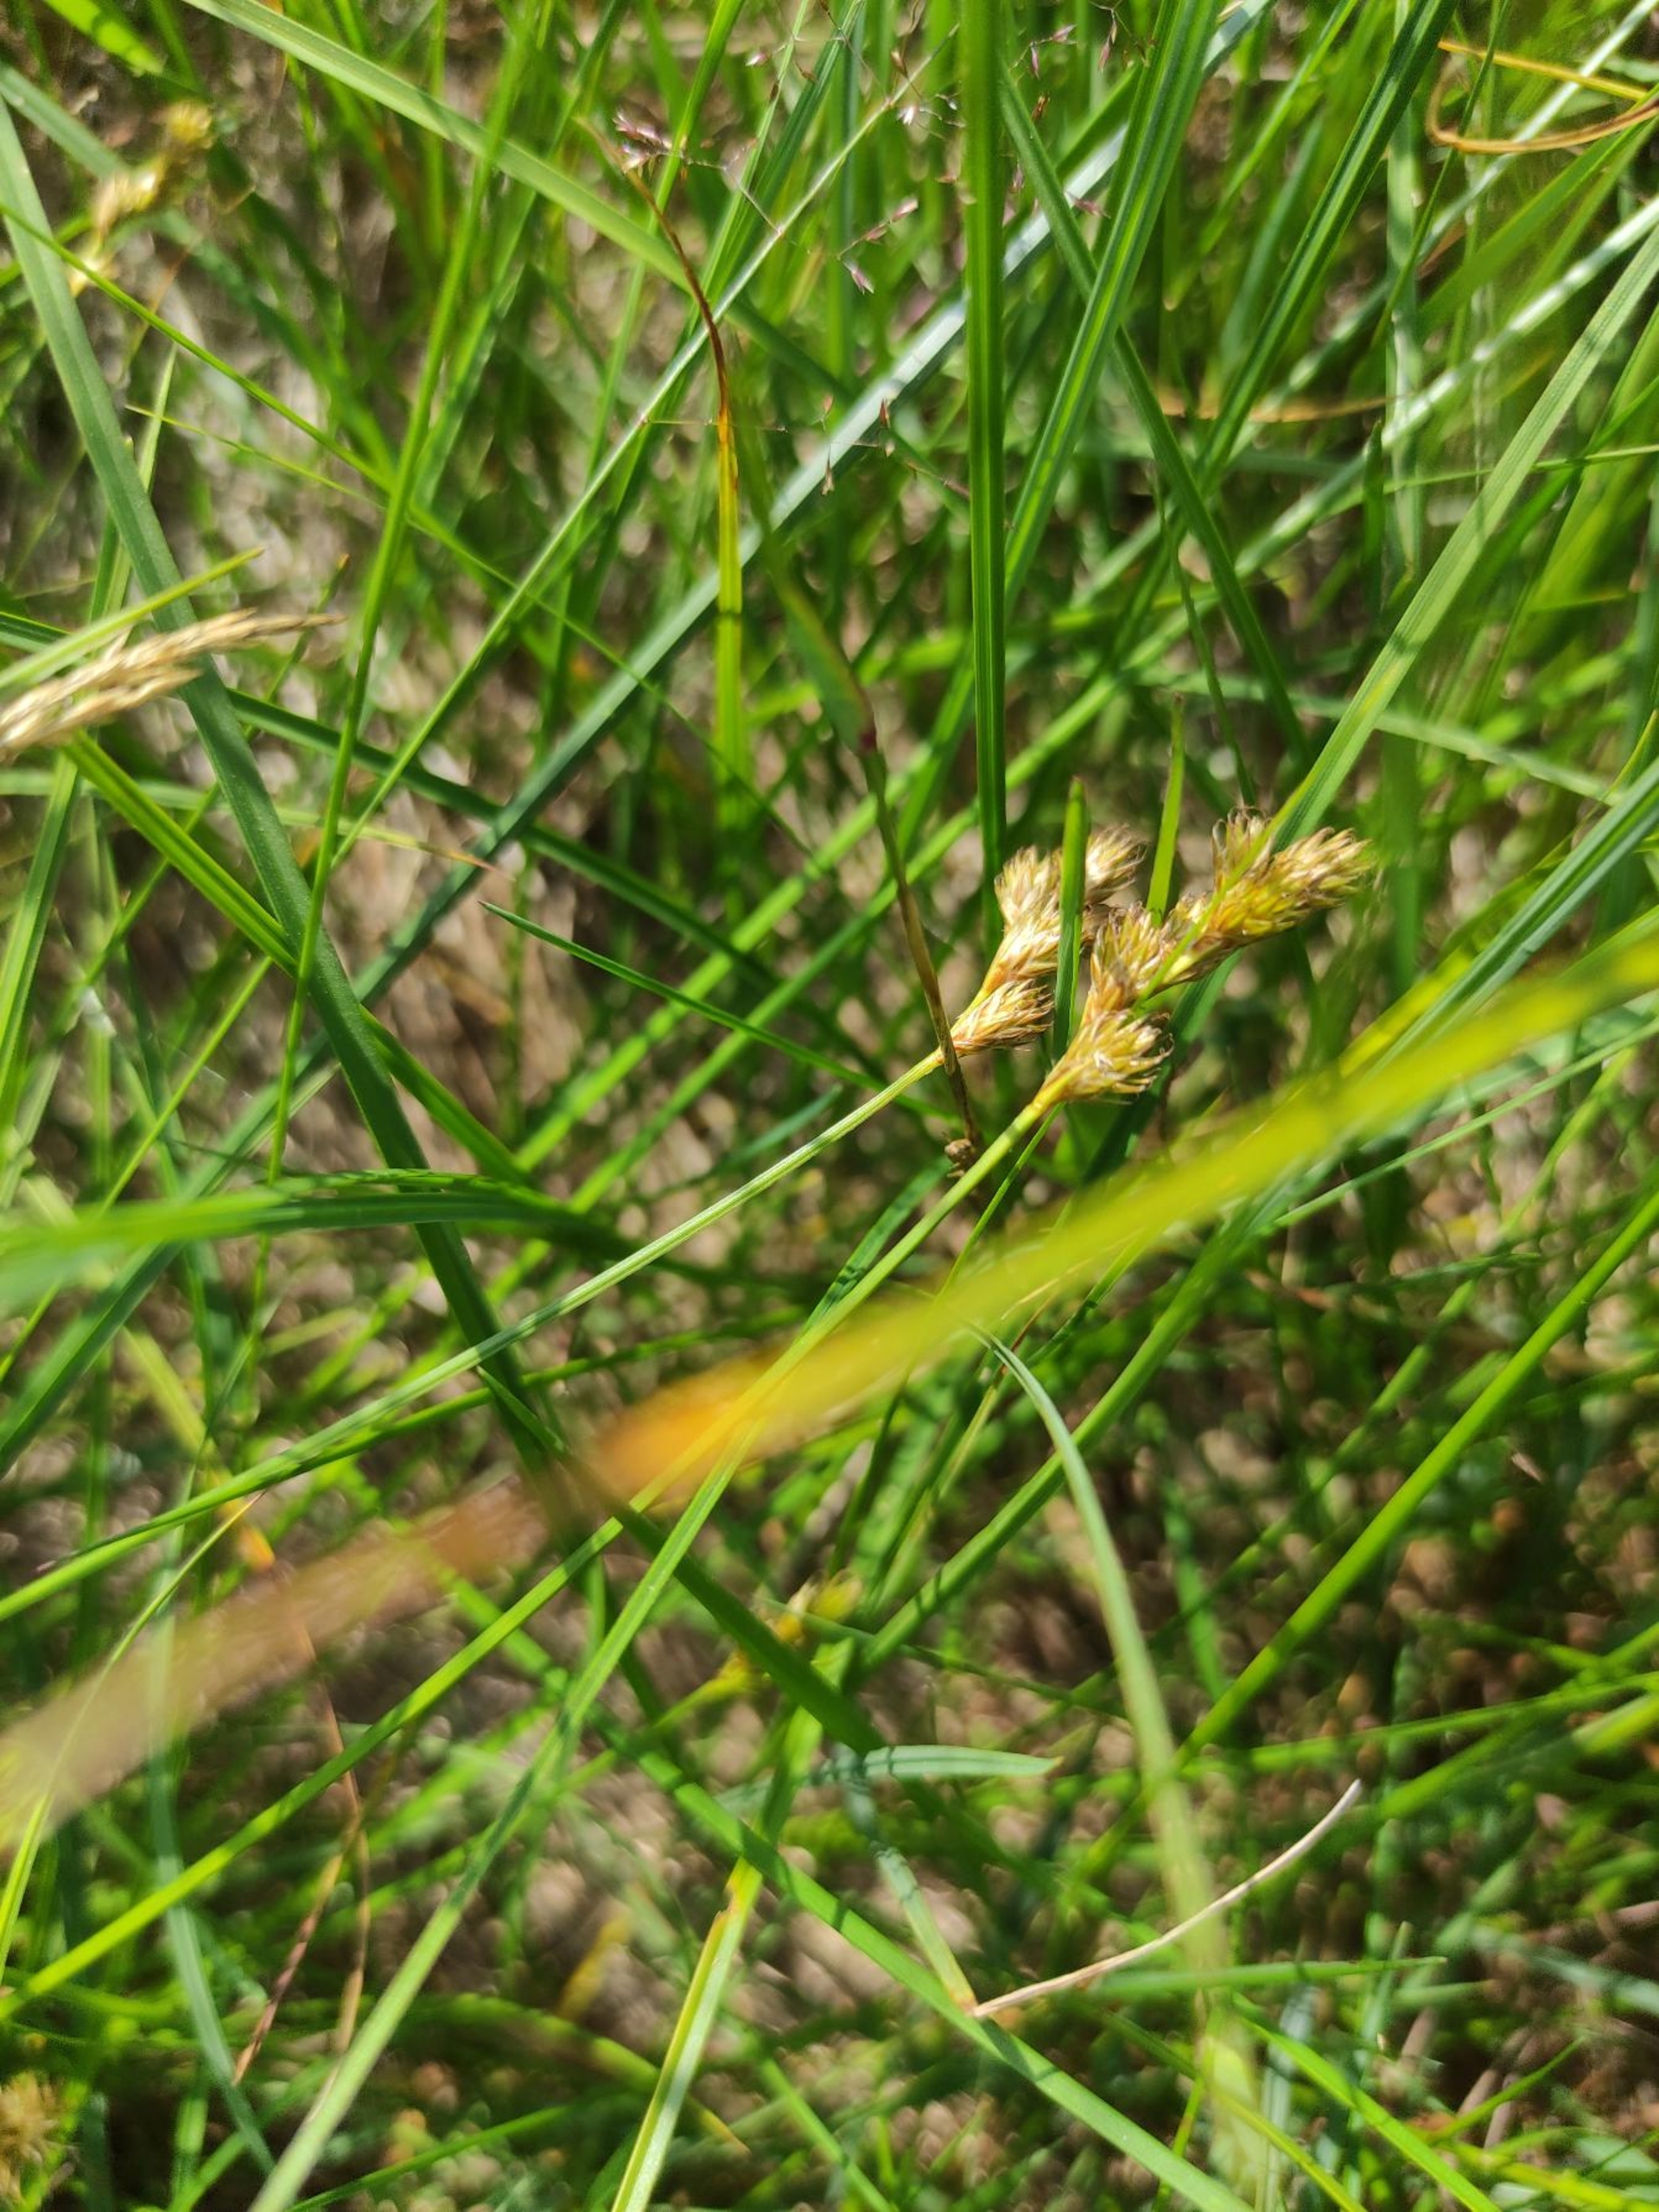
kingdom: Plantae
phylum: Tracheophyta
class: Liliopsida
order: Poales
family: Cyperaceae
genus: Carex
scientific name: Carex leporina
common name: Hare-star
